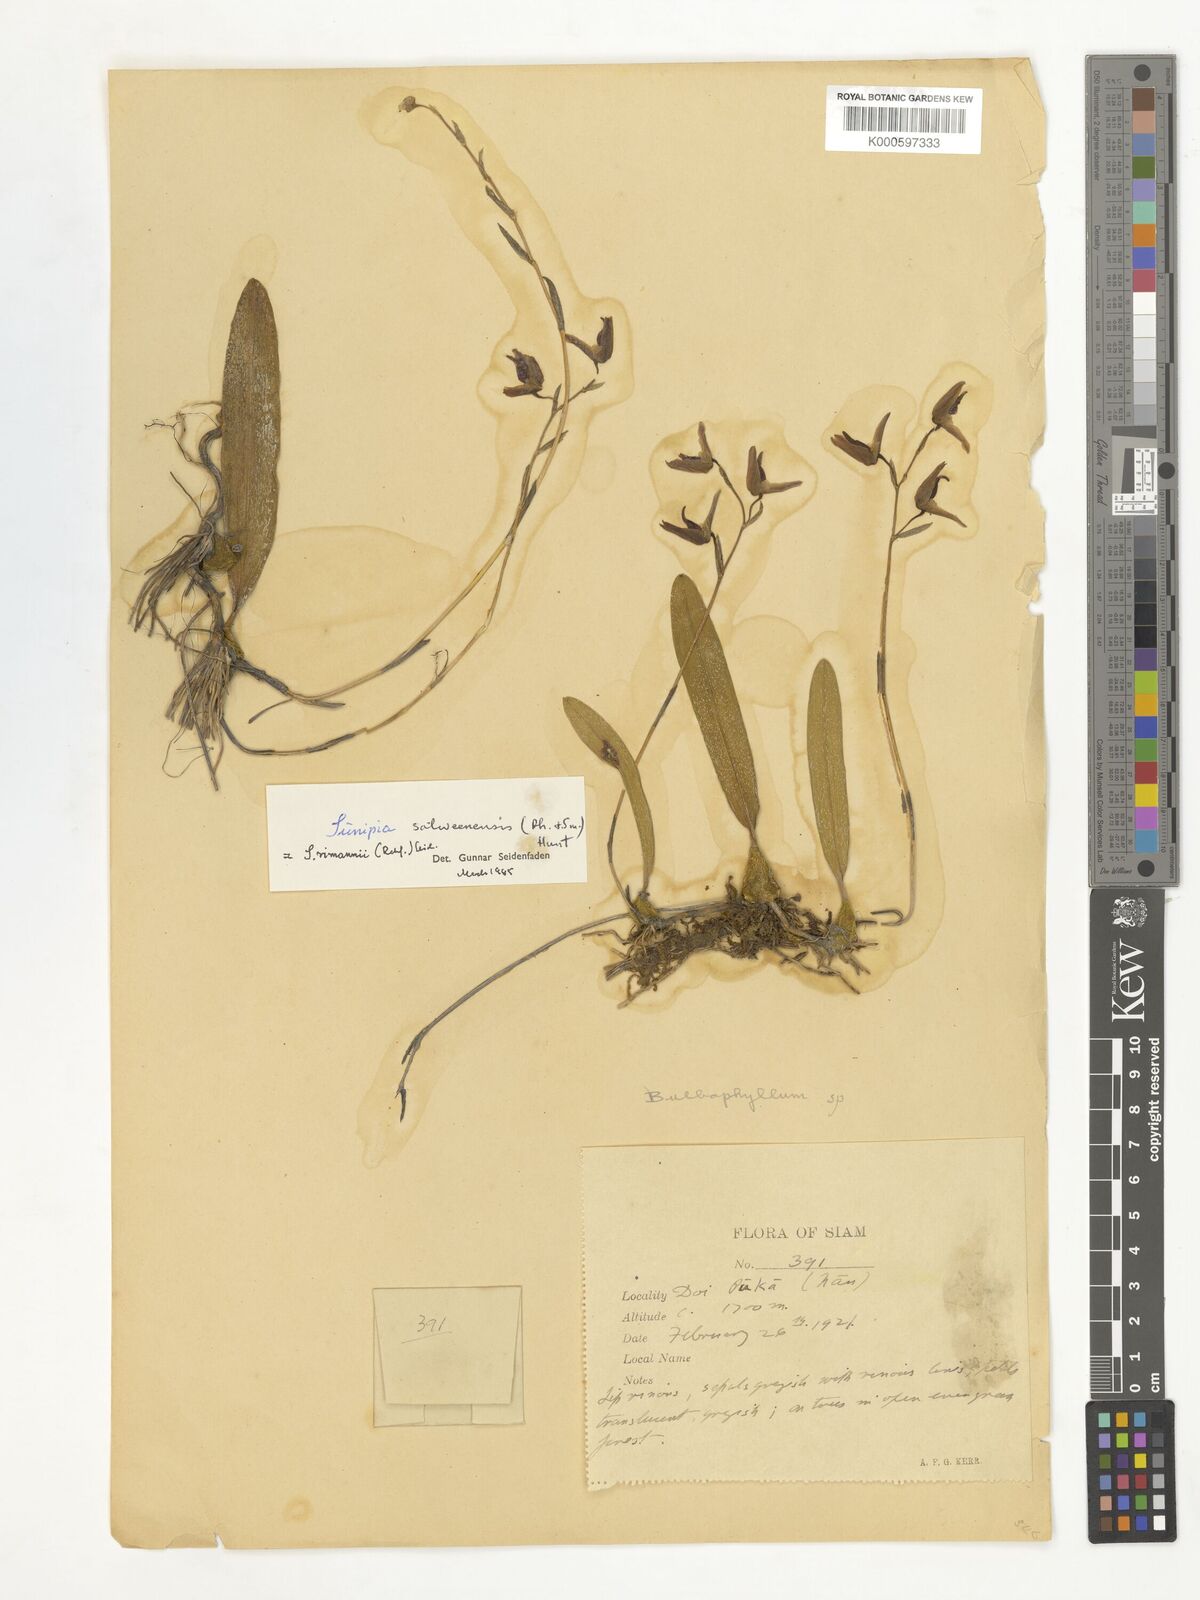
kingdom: Plantae
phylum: Tracheophyta
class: Liliopsida
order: Asparagales
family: Orchidaceae
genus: Bulbophyllum
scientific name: Bulbophyllum rimannii
